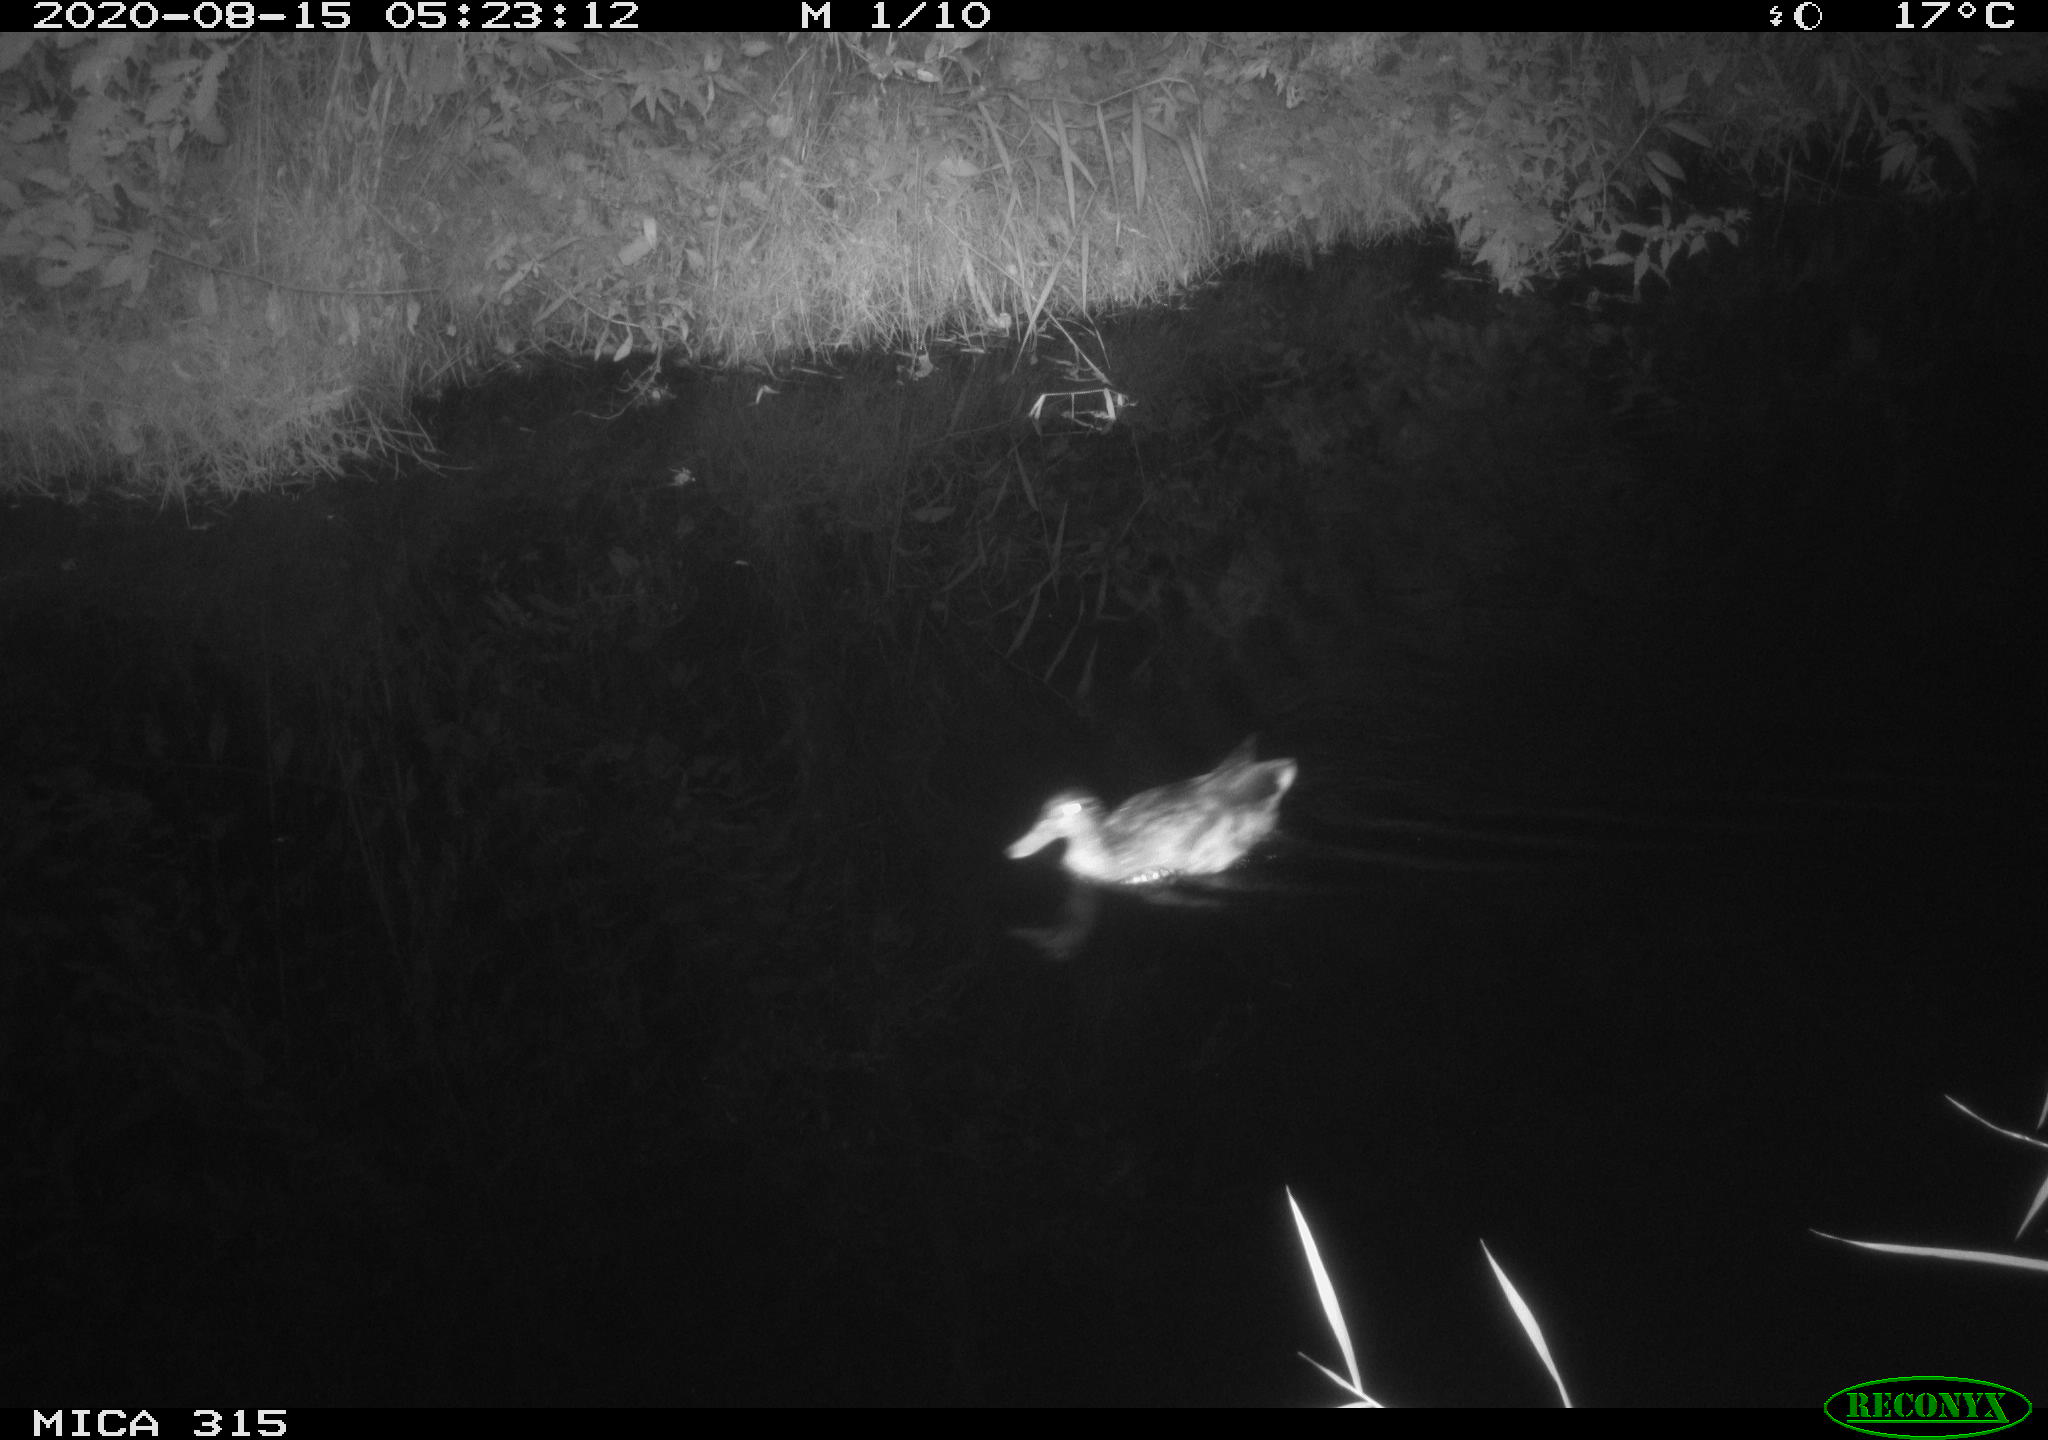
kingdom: Animalia
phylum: Chordata
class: Aves
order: Anseriformes
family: Anatidae
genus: Anas
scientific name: Anas platyrhynchos
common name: Mallard
